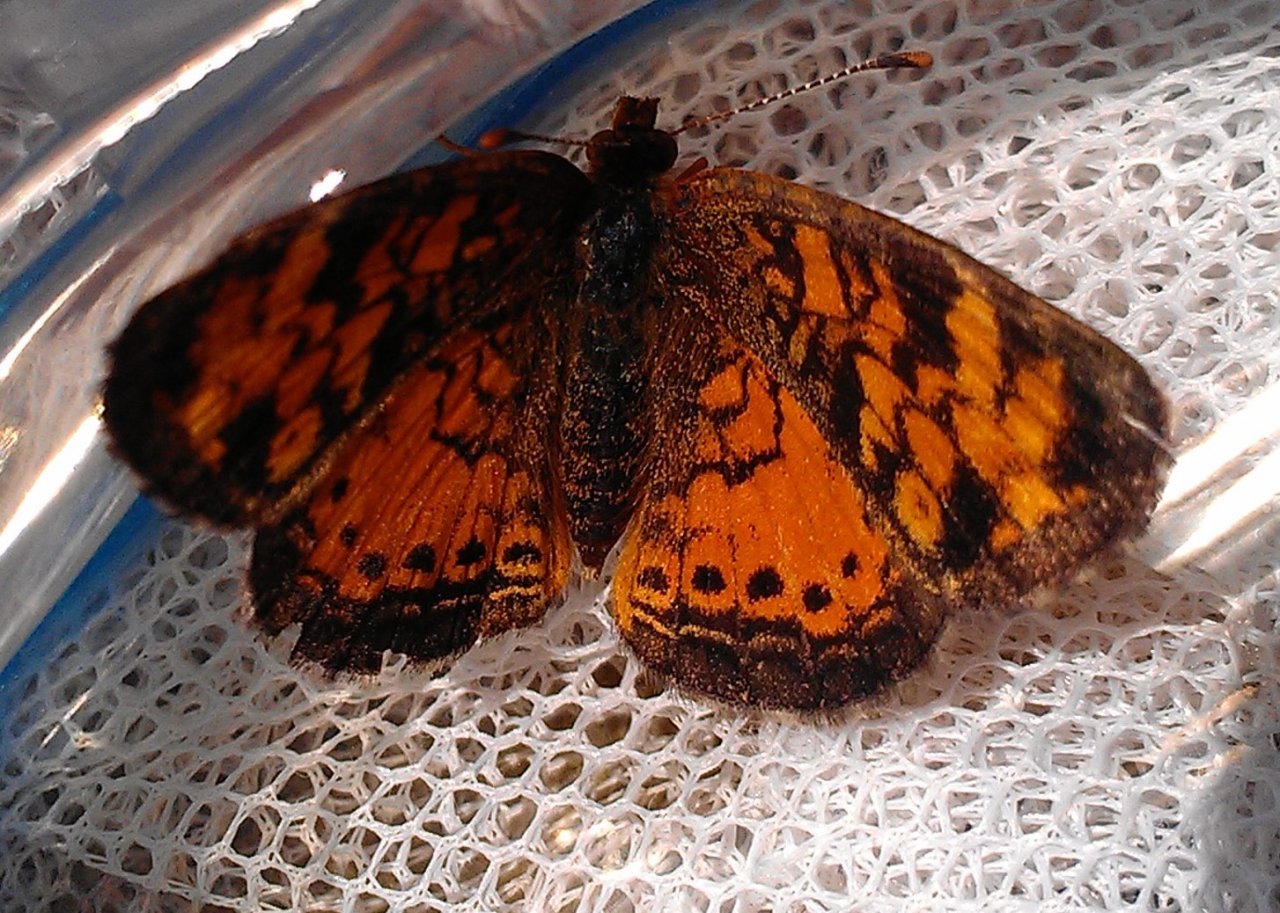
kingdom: Animalia
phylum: Arthropoda
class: Insecta
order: Lepidoptera
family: Nymphalidae
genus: Phyciodes
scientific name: Phyciodes tharos
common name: Northern Crescent
